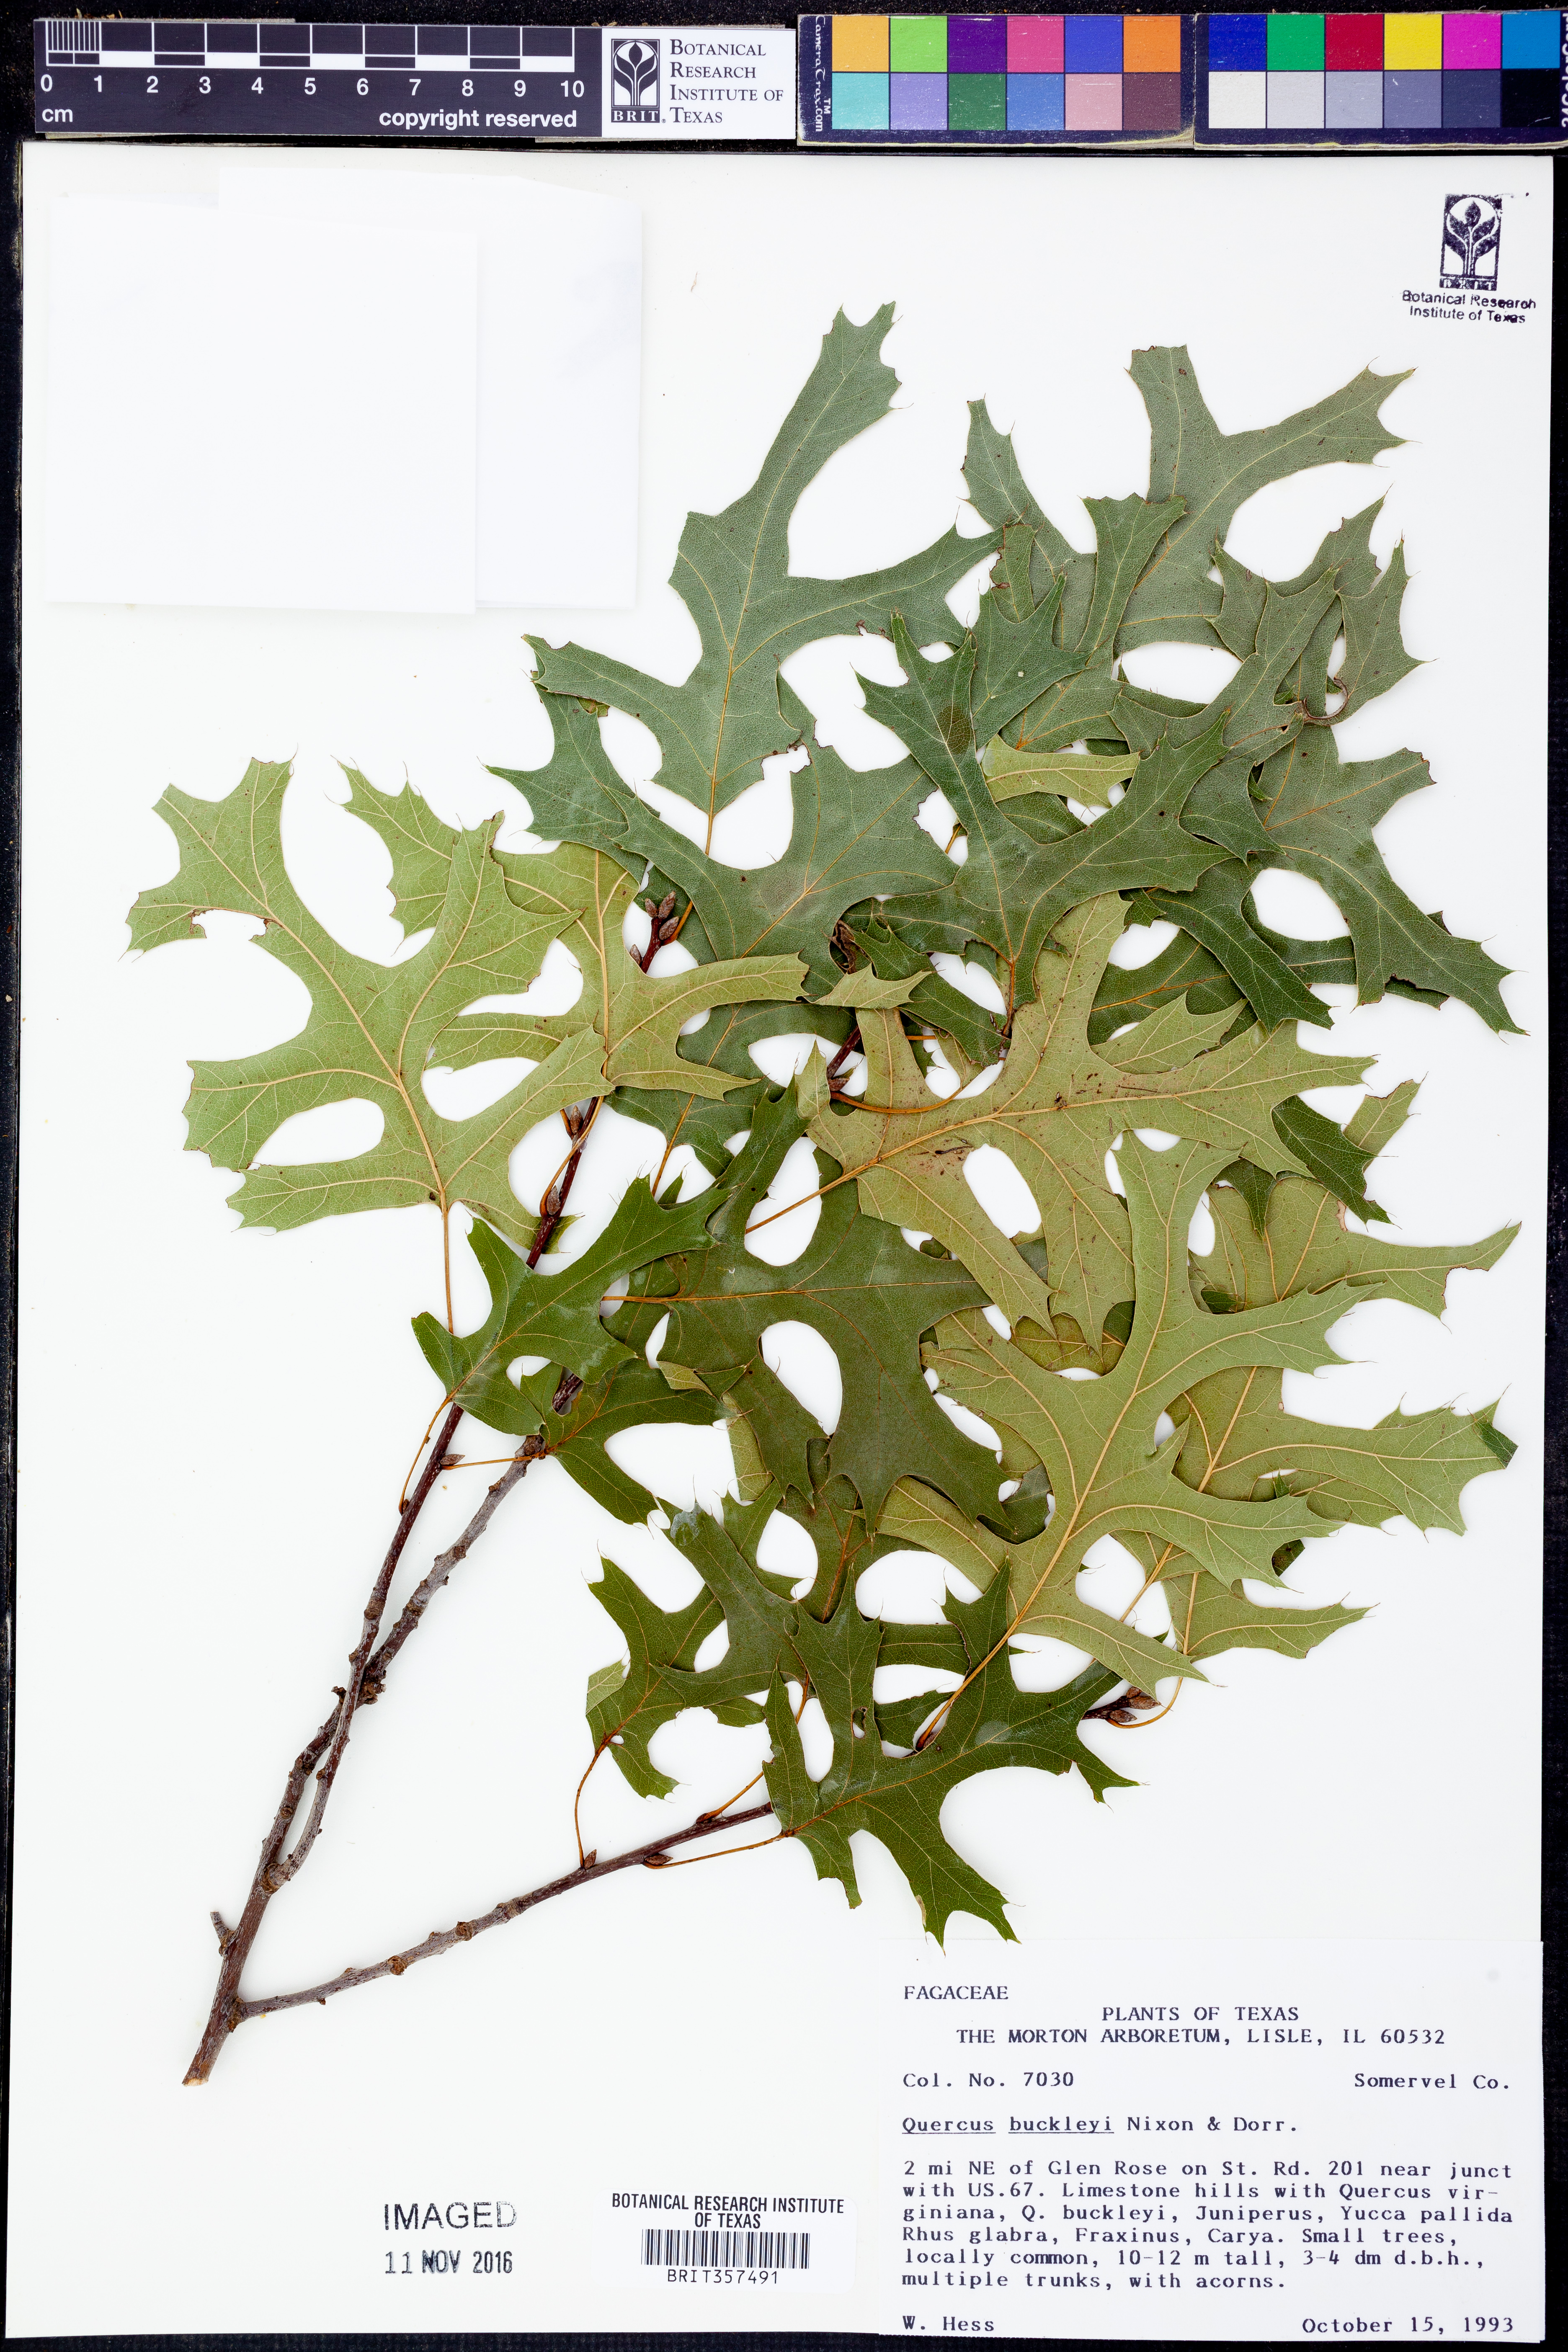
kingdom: Plantae
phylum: Tracheophyta
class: Magnoliopsida
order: Fagales
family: Fagaceae
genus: Quercus
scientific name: Quercus buckleyi
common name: Buckley oak
